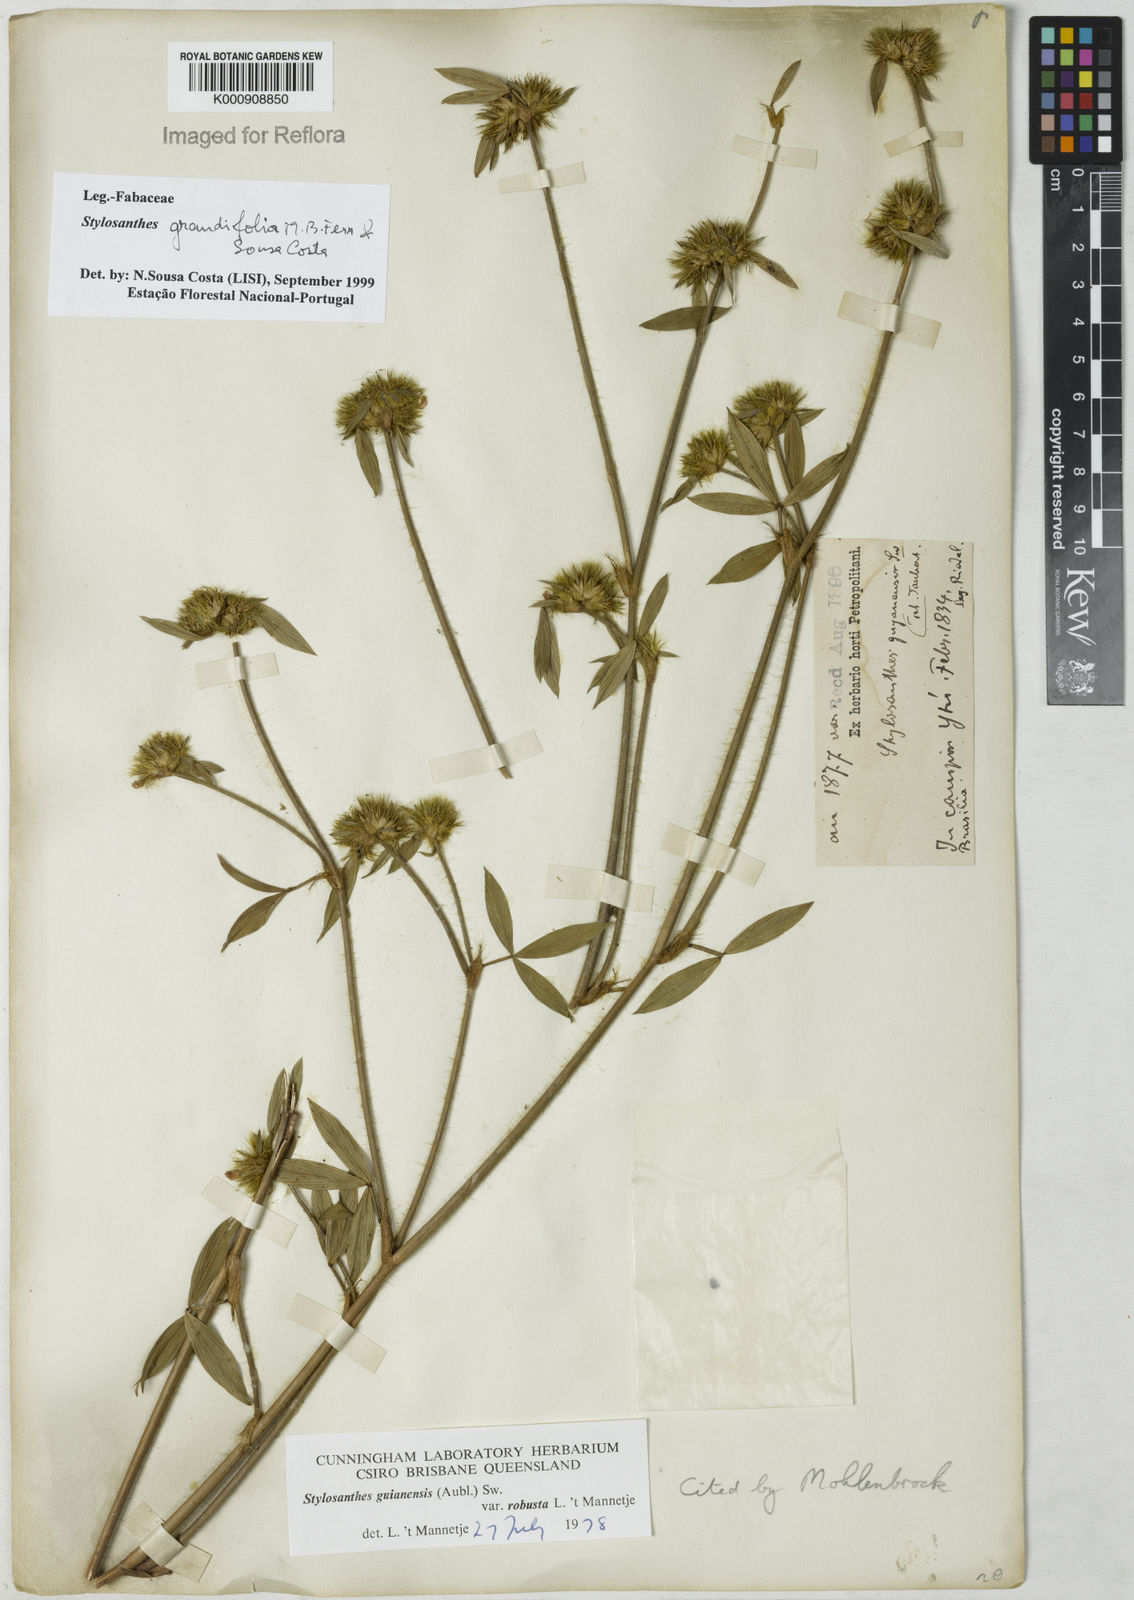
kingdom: Plantae
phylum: Tracheophyta
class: Magnoliopsida
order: Fabales
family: Fabaceae
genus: Stylosanthes
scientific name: Stylosanthes guianensis
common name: Pencil flower
